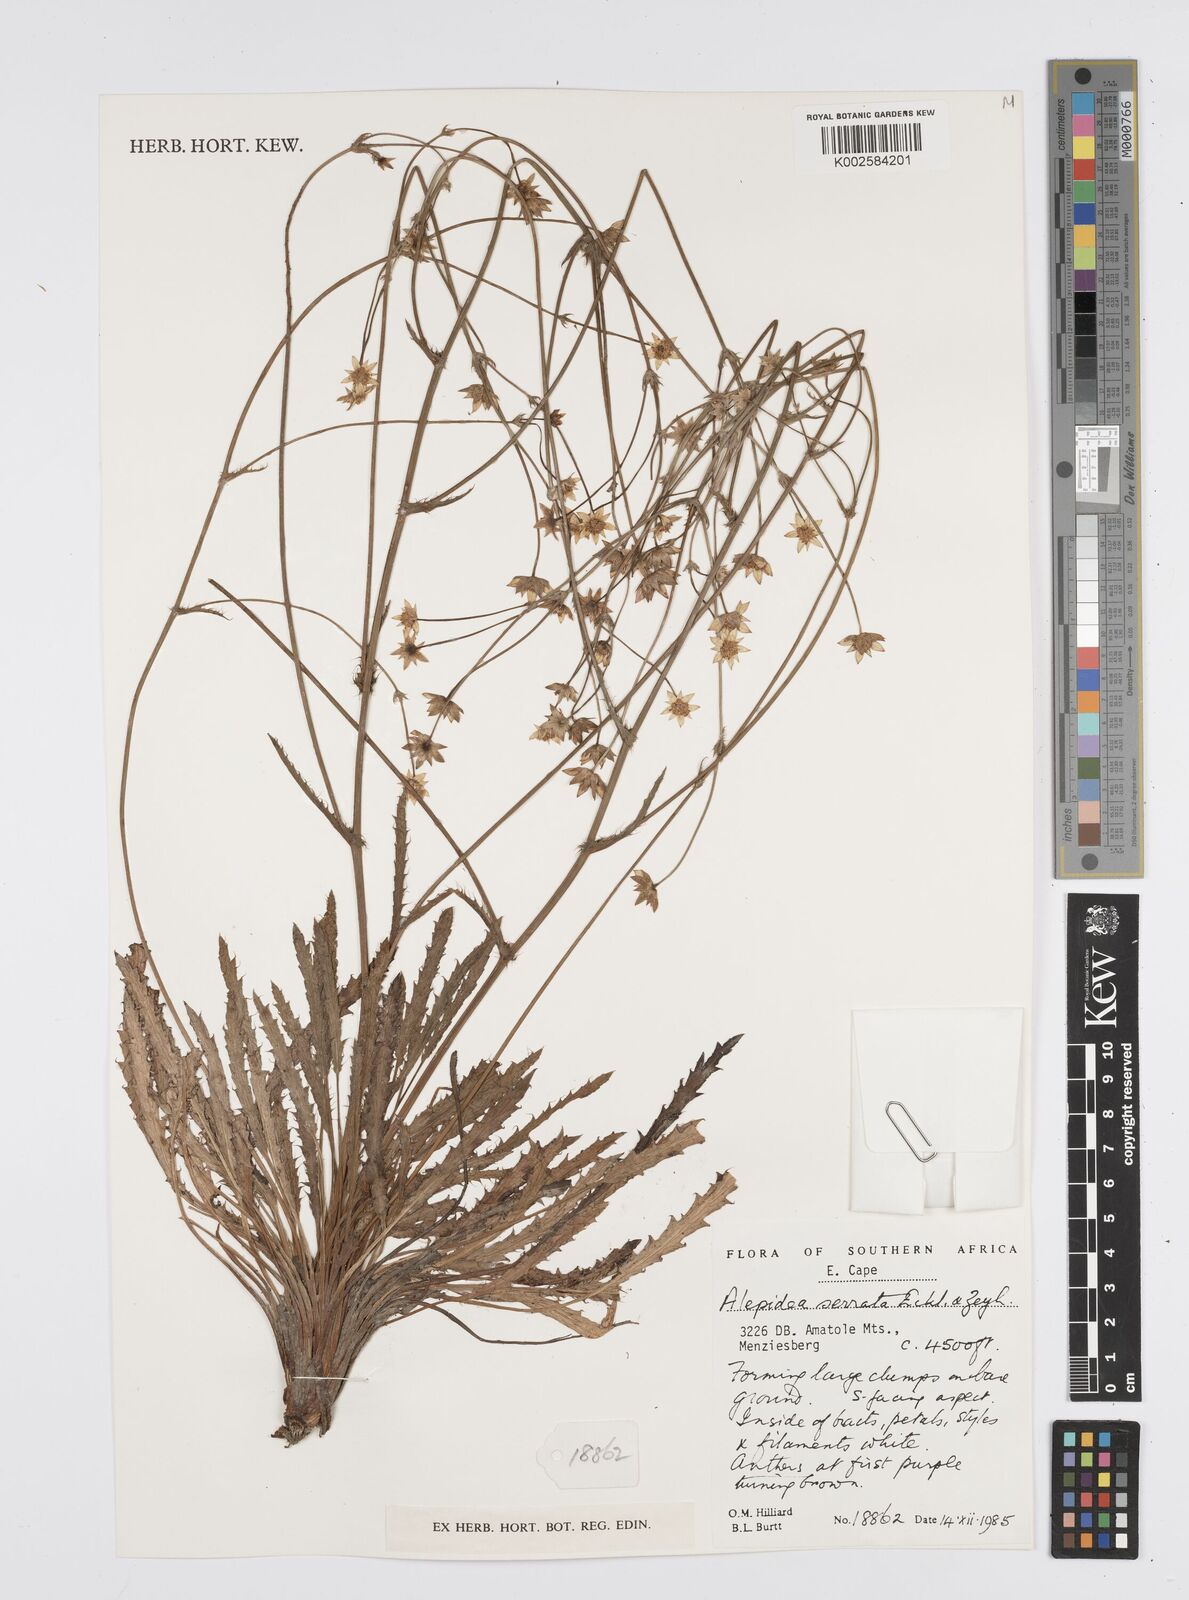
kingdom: Plantae
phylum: Tracheophyta
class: Magnoliopsida
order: Apiales
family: Apiaceae
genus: Alepidea
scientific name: Alepidea serrata
